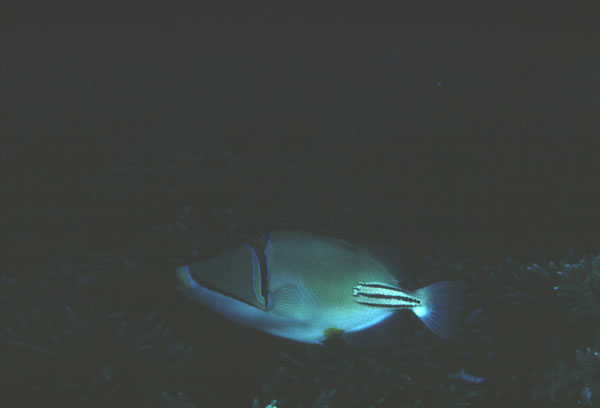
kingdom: Animalia
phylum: Chordata
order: Tetraodontiformes
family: Balistidae
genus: Rhinecanthus
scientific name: Rhinecanthus assasi
